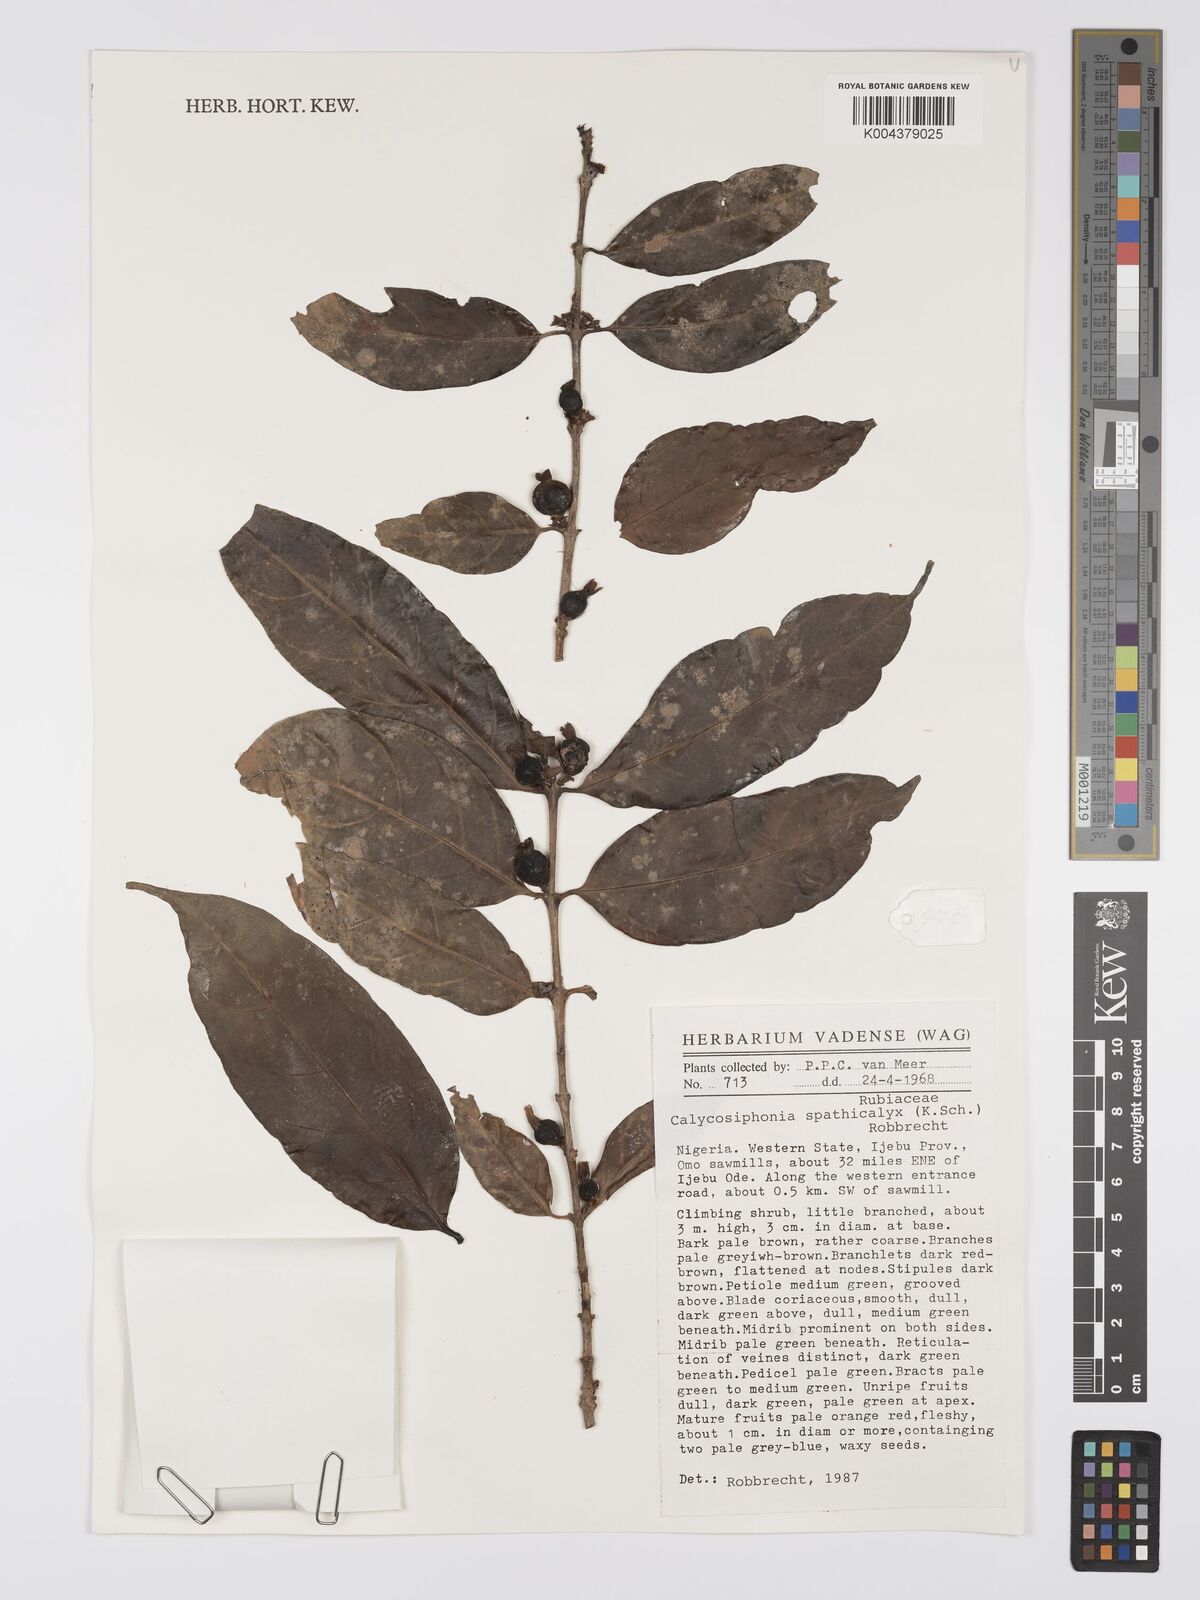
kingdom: Plantae
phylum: Tracheophyta
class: Magnoliopsida
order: Gentianales
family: Rubiaceae
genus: Calycosiphonia
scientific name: Calycosiphonia spathicalyx
